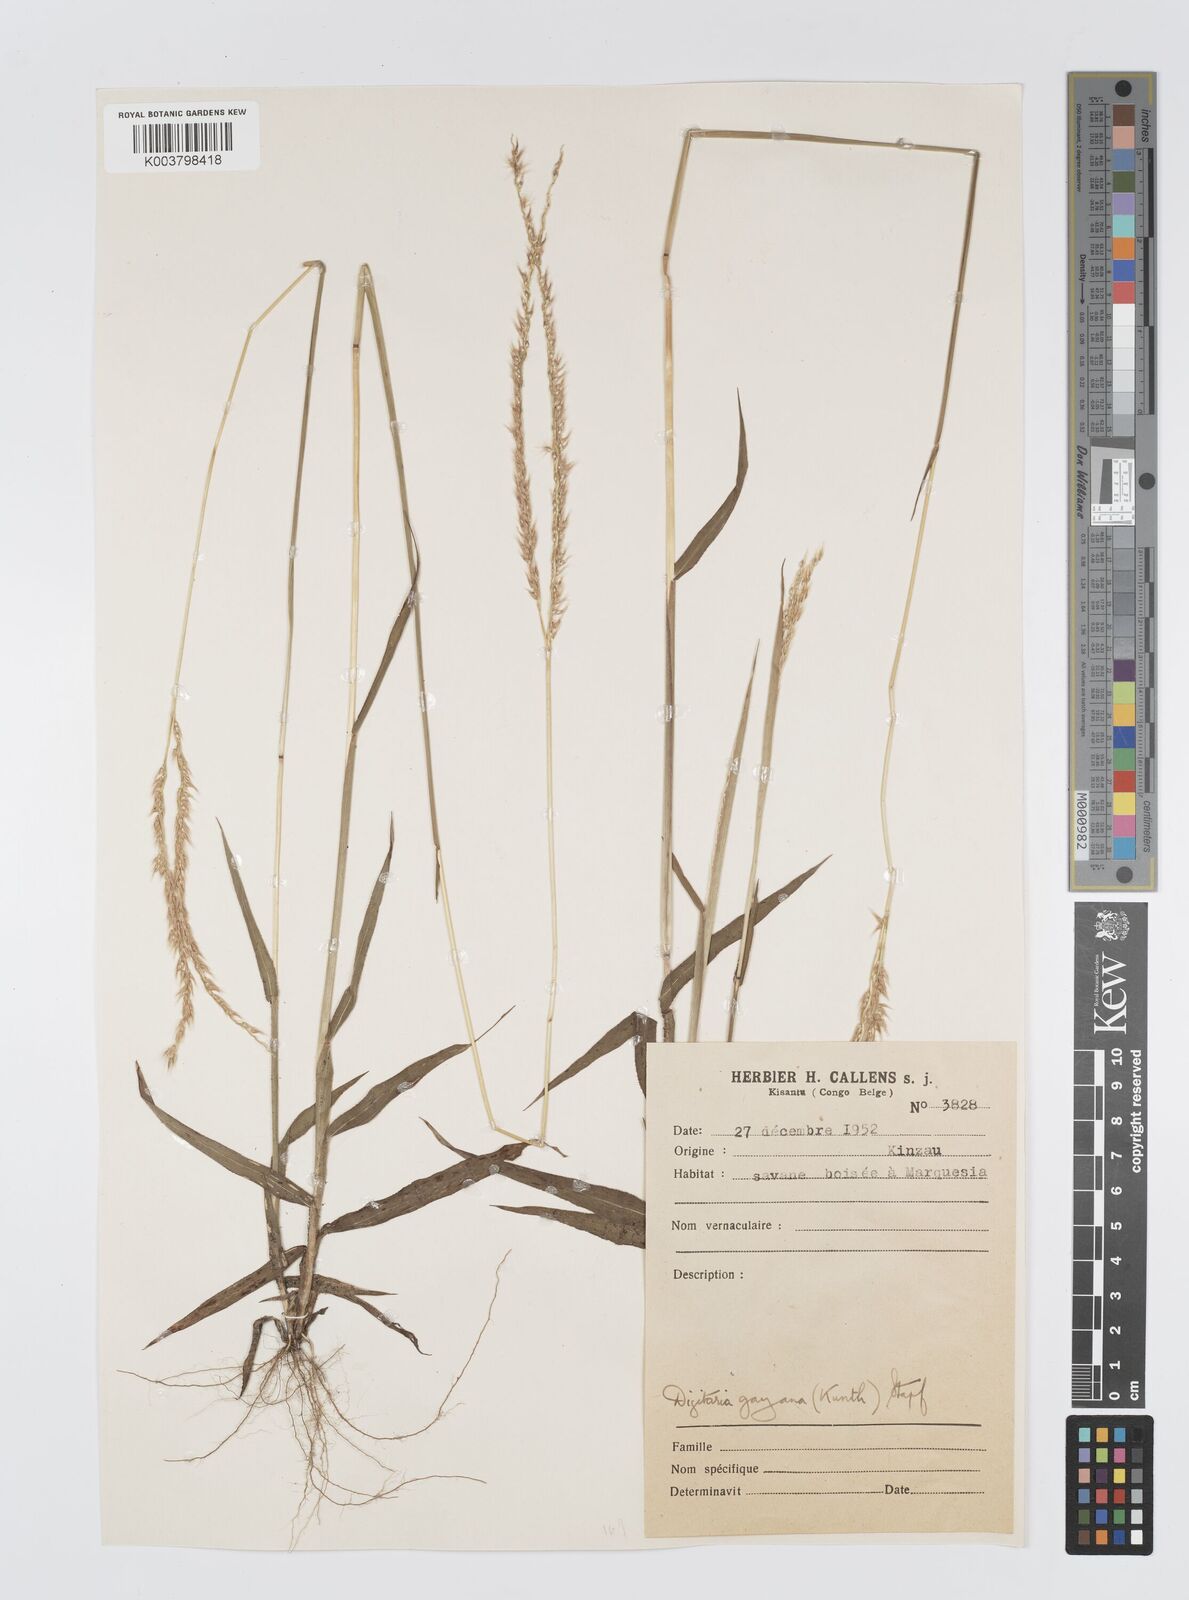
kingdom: Plantae
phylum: Tracheophyta
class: Liliopsida
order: Poales
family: Poaceae
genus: Digitaria
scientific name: Digitaria gayana
